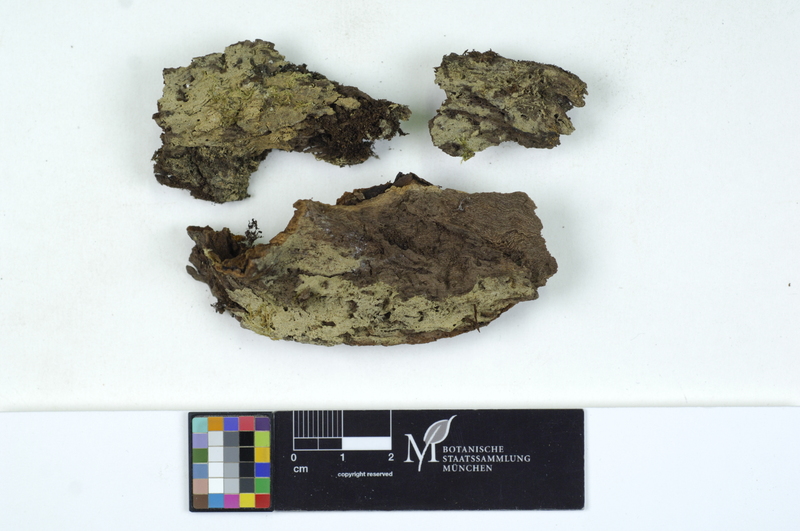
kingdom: Plantae
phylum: Tracheophyta
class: Magnoliopsida
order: Rosales
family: Ulmaceae
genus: Ulmus
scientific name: Ulmus
